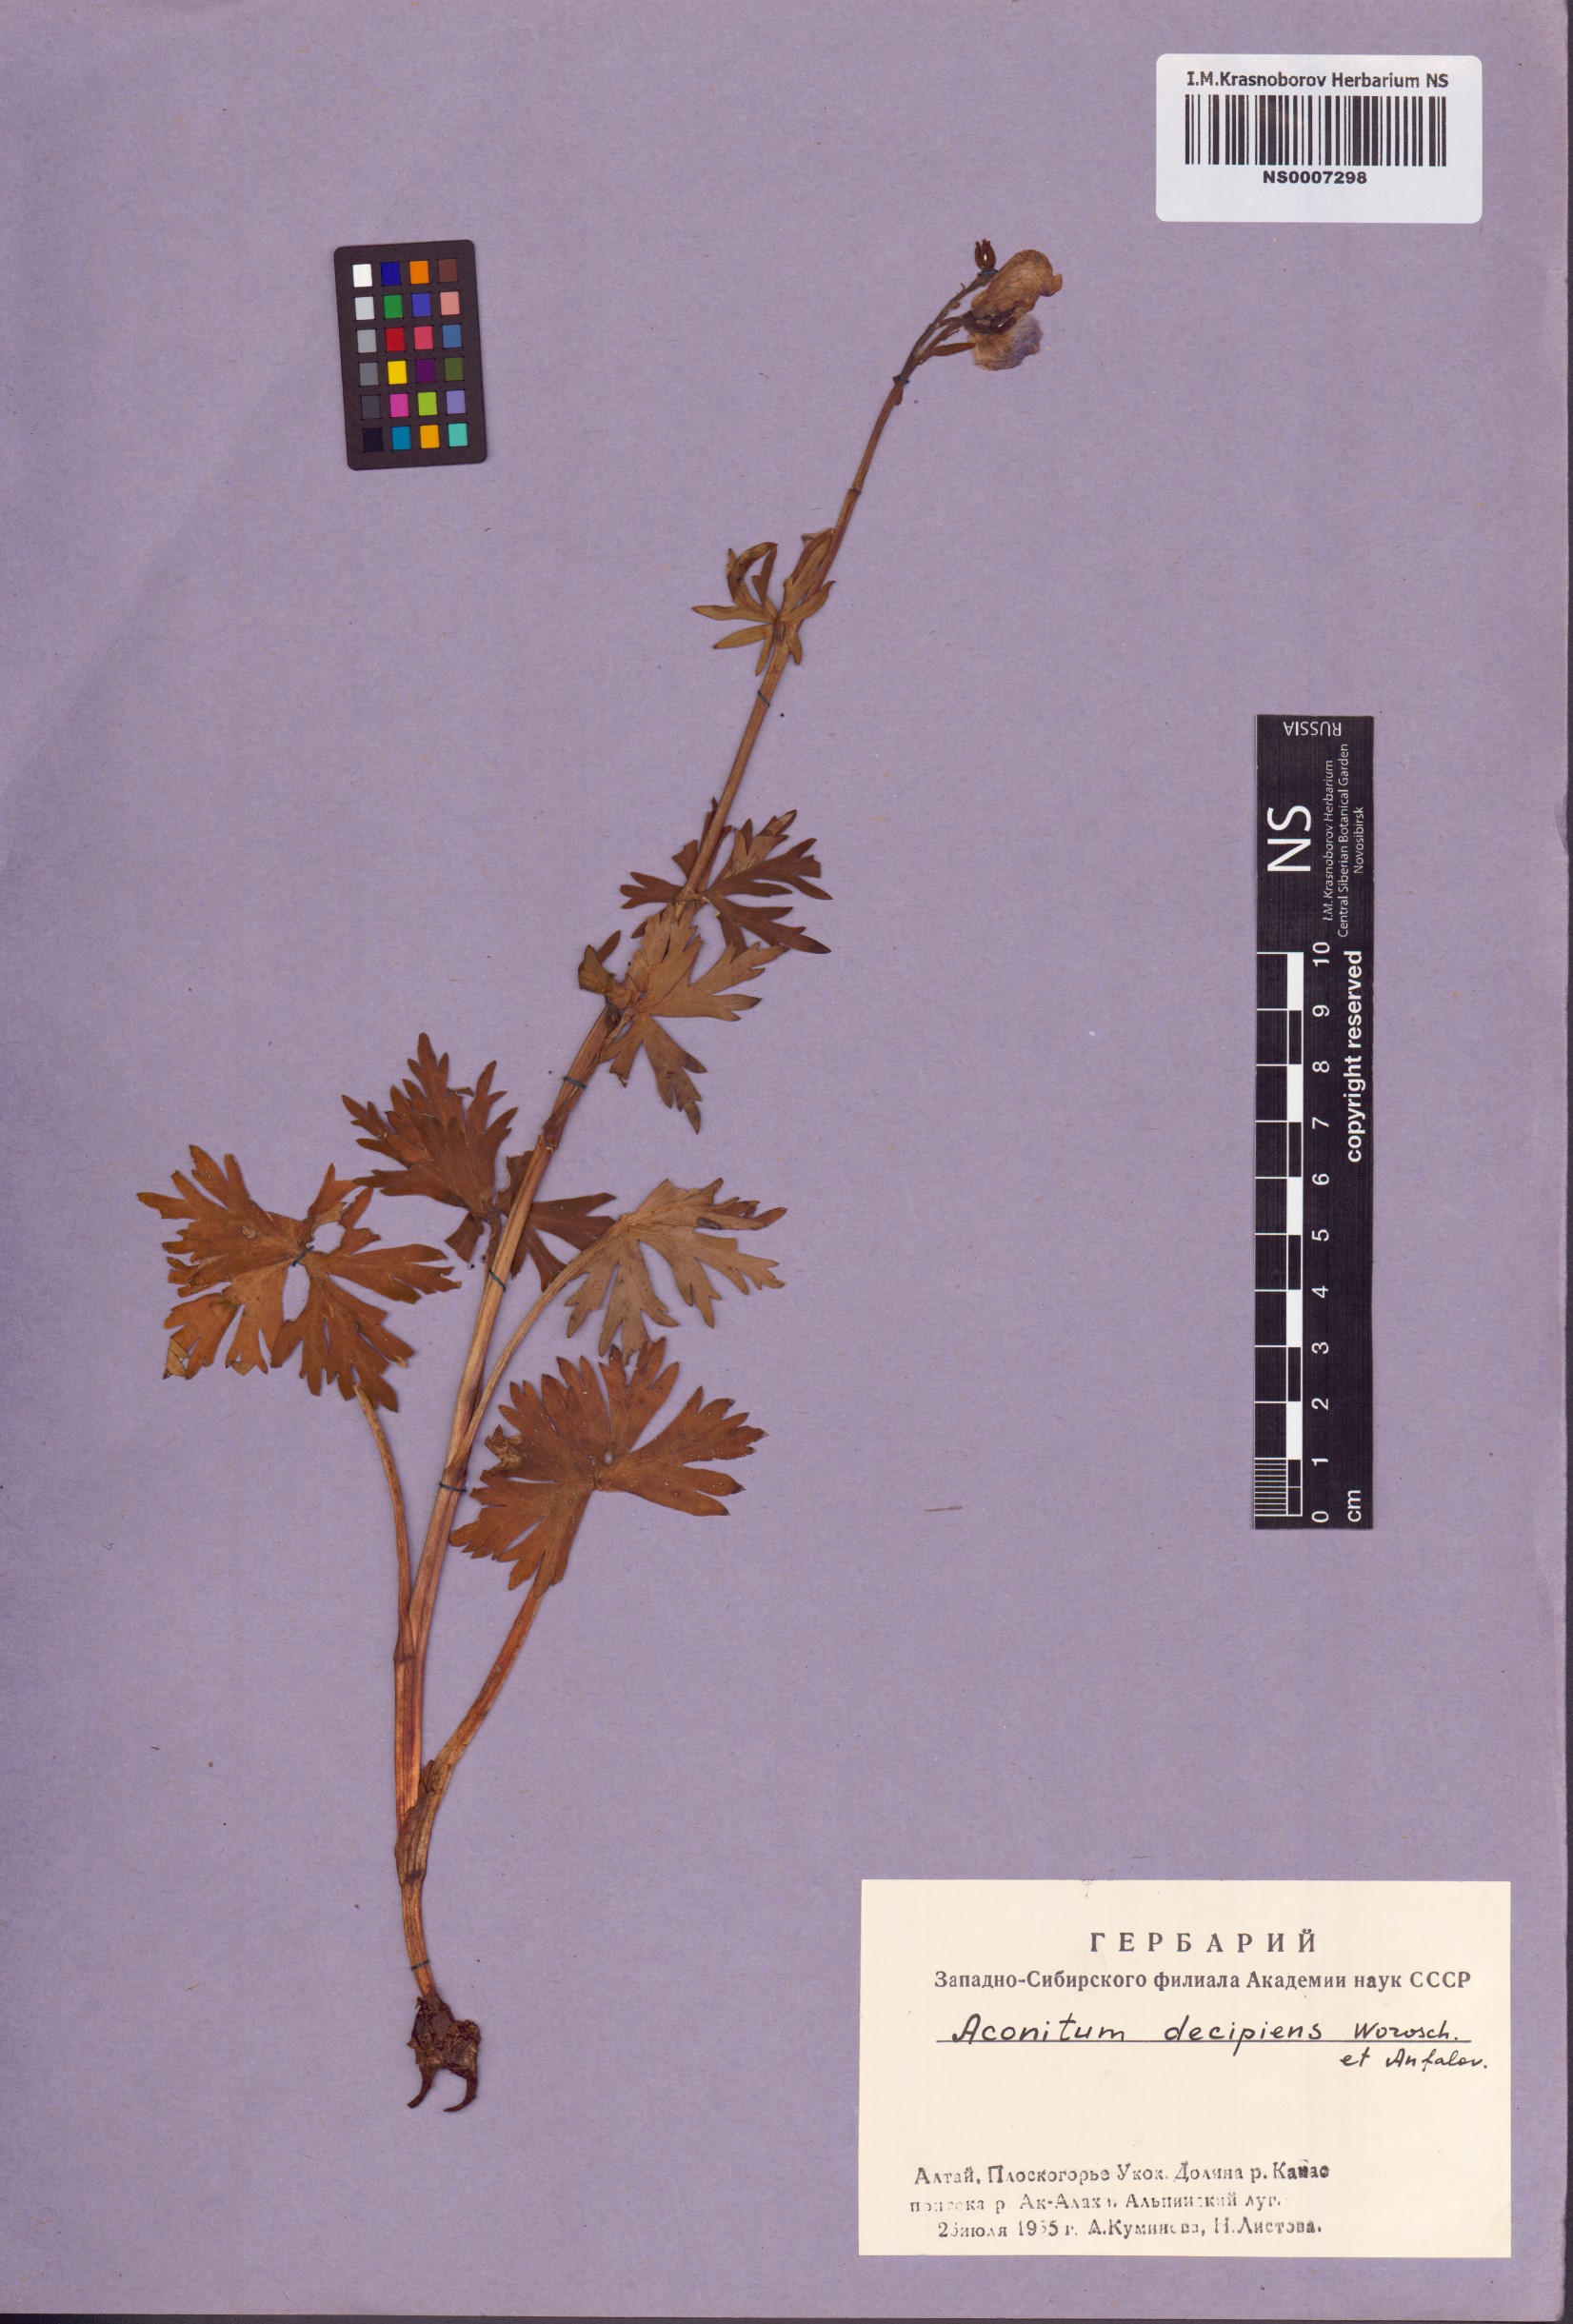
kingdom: Plantae
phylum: Tracheophyta
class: Magnoliopsida
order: Ranunculales
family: Ranunculaceae
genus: Aconitum
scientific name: Aconitum decipiens
